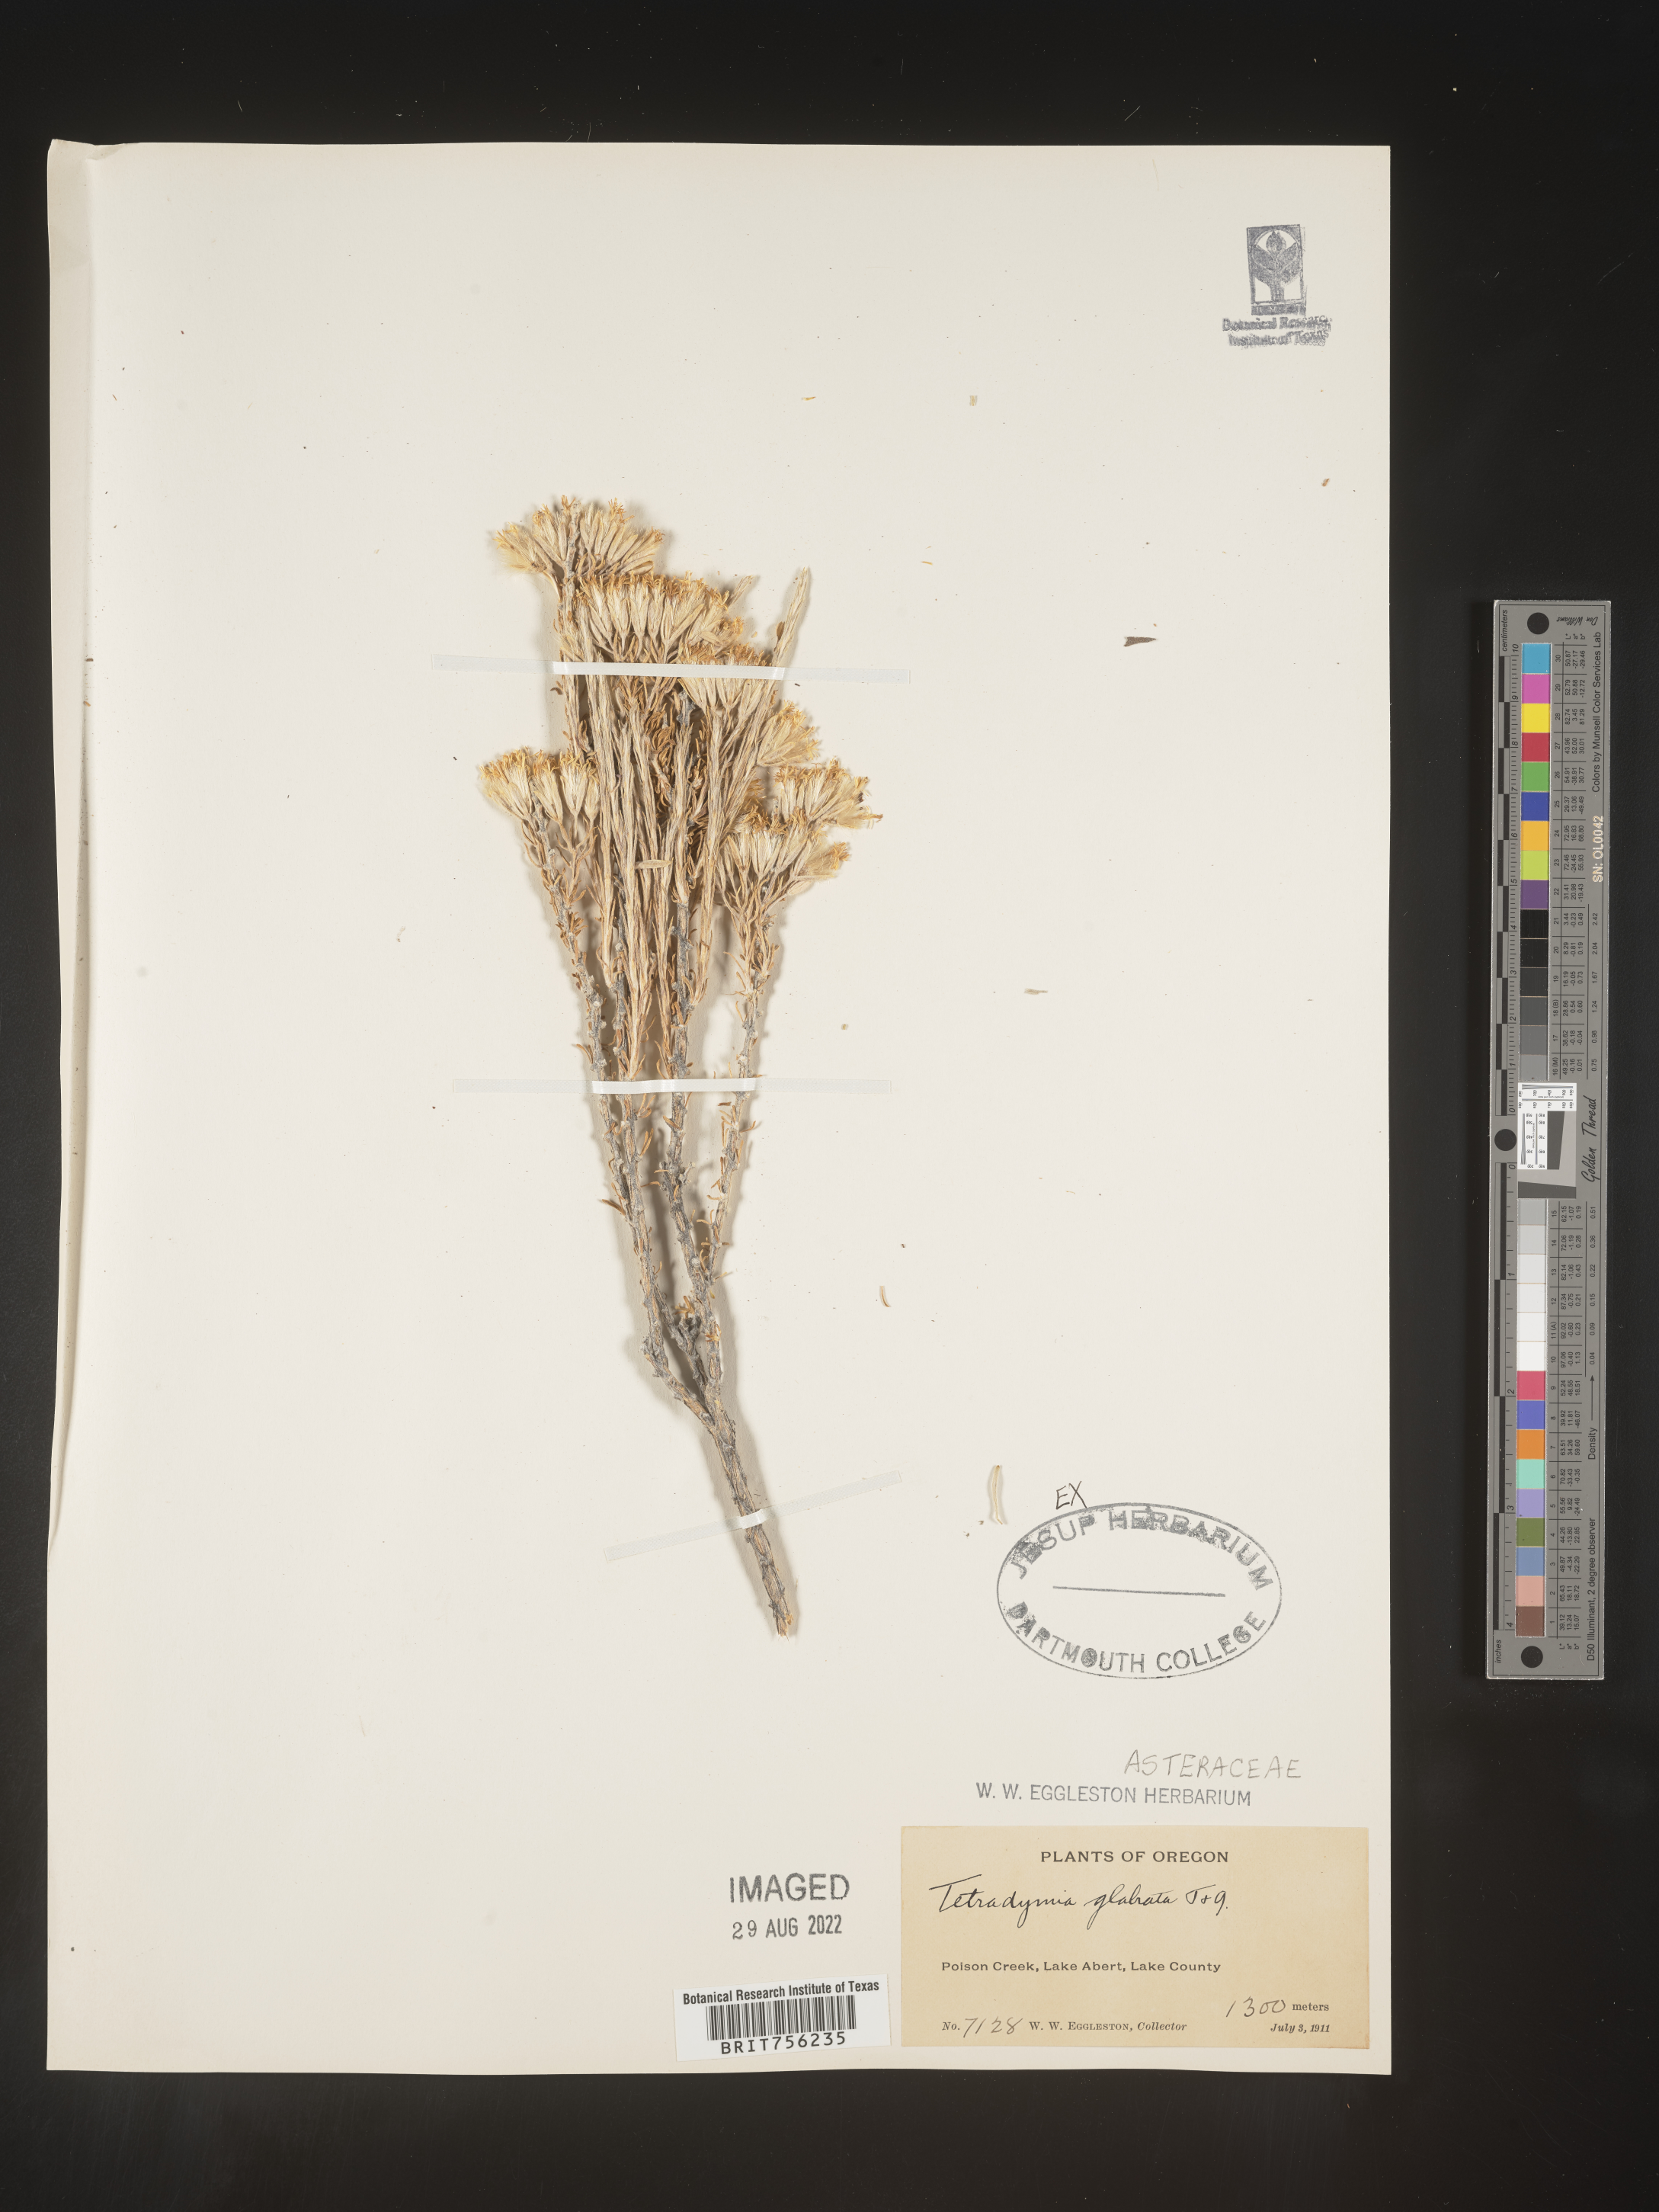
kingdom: Plantae
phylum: Tracheophyta
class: Magnoliopsida
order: Asterales
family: Asteraceae
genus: Tetradymia
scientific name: Tetradymia
